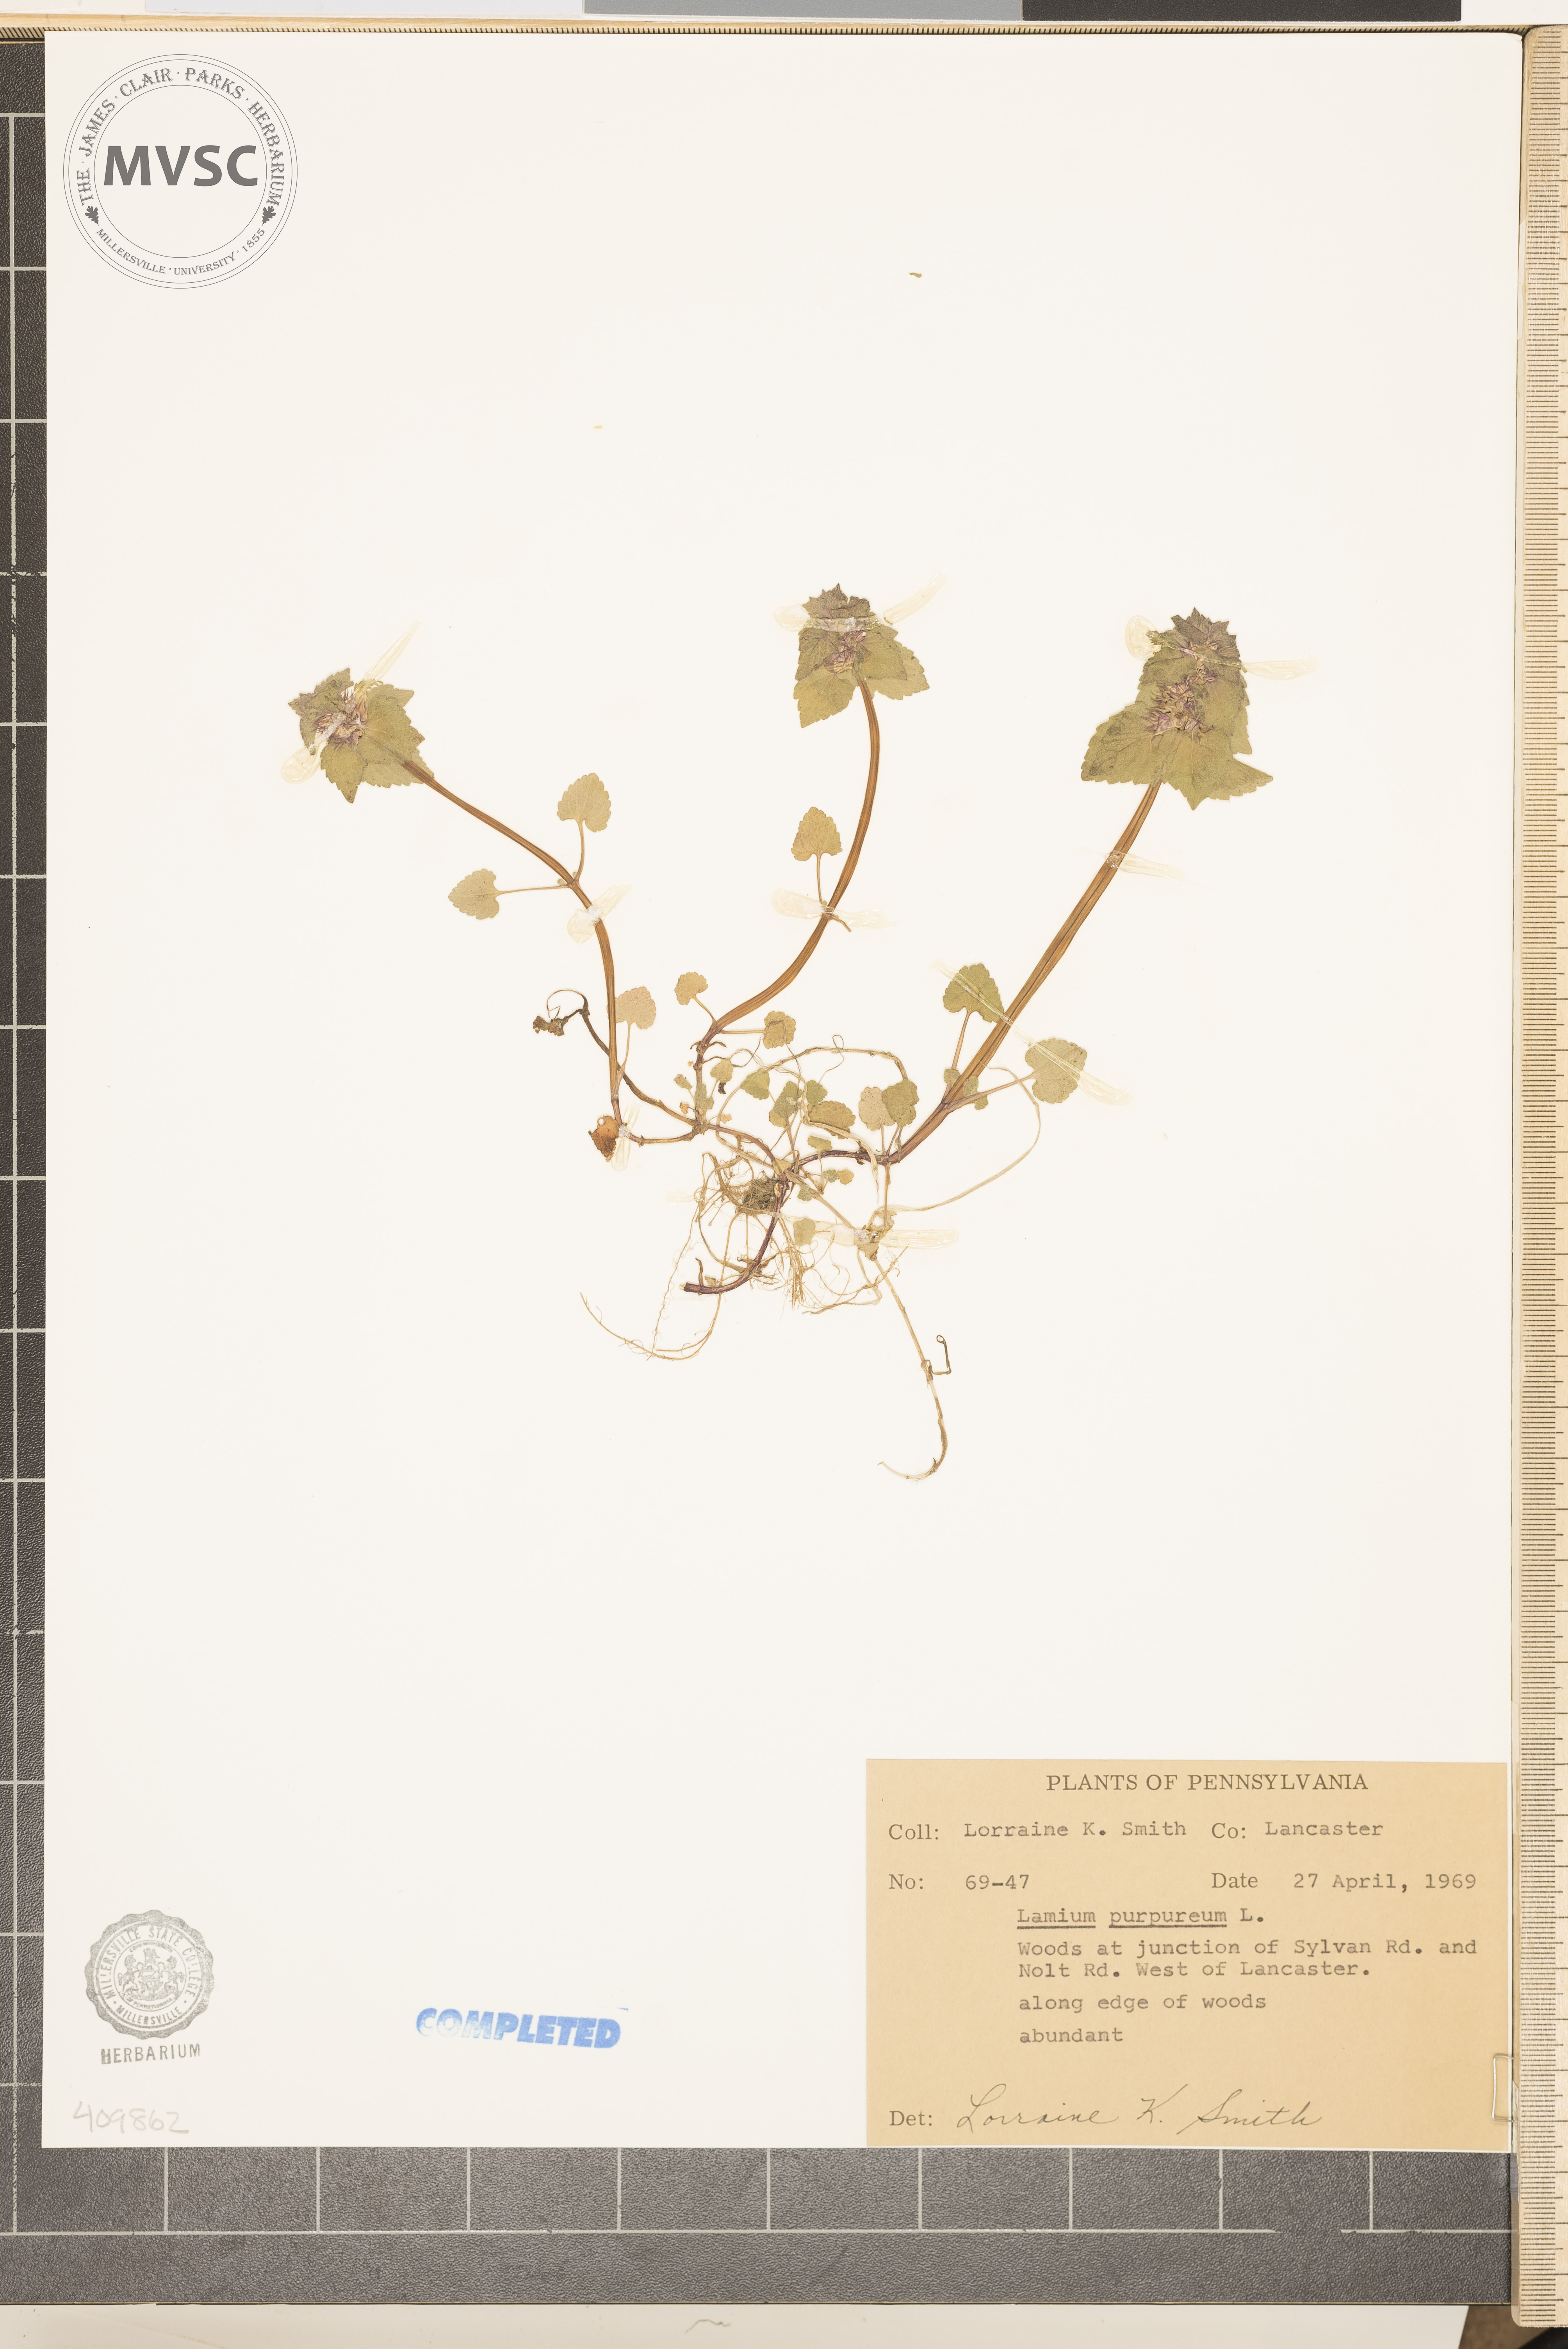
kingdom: Plantae
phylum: Tracheophyta
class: Magnoliopsida
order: Lamiales
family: Lamiaceae
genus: Lamium
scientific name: Lamium purpureum
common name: purple dead-nettle
